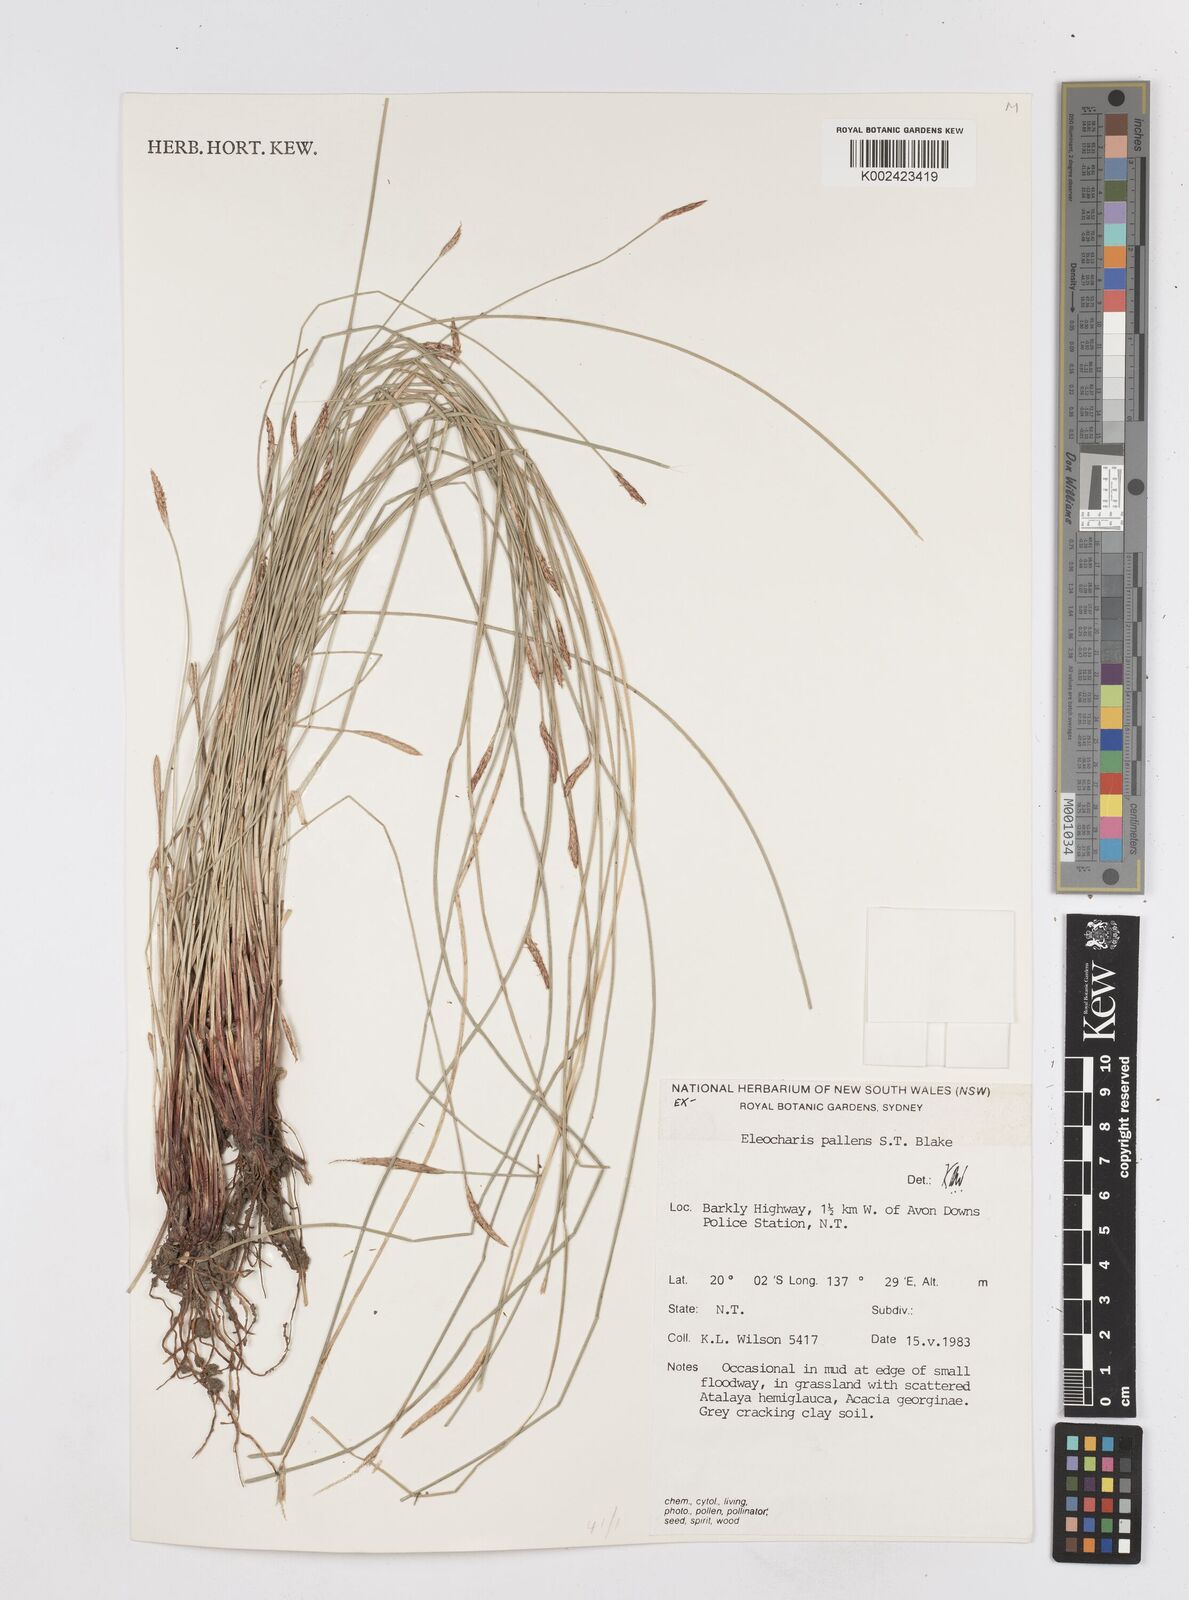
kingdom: Plantae
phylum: Tracheophyta
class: Liliopsida
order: Poales
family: Cyperaceae
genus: Eleocharis
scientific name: Eleocharis acuta
